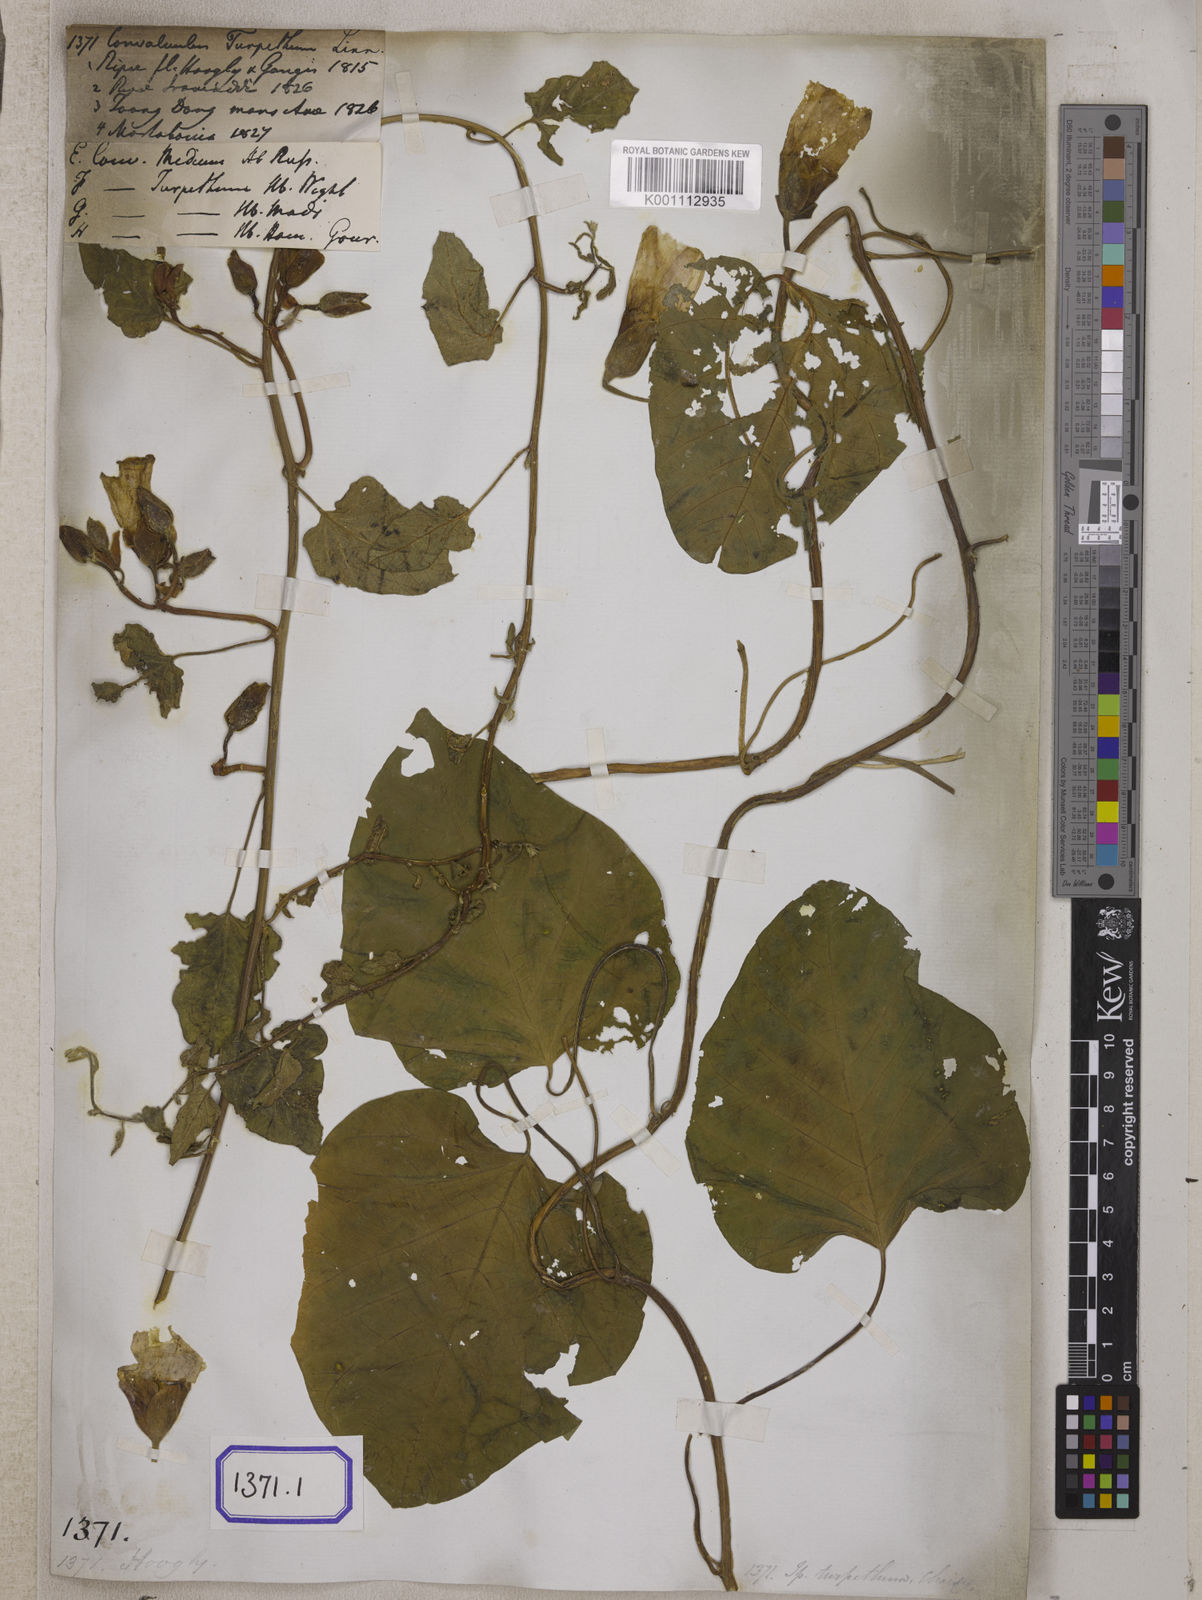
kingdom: Plantae
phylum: Tracheophyta
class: Magnoliopsida
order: Solanales
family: Convolvulaceae
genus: Operculina
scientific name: Operculina turpethum
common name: Transparent wood-rose
